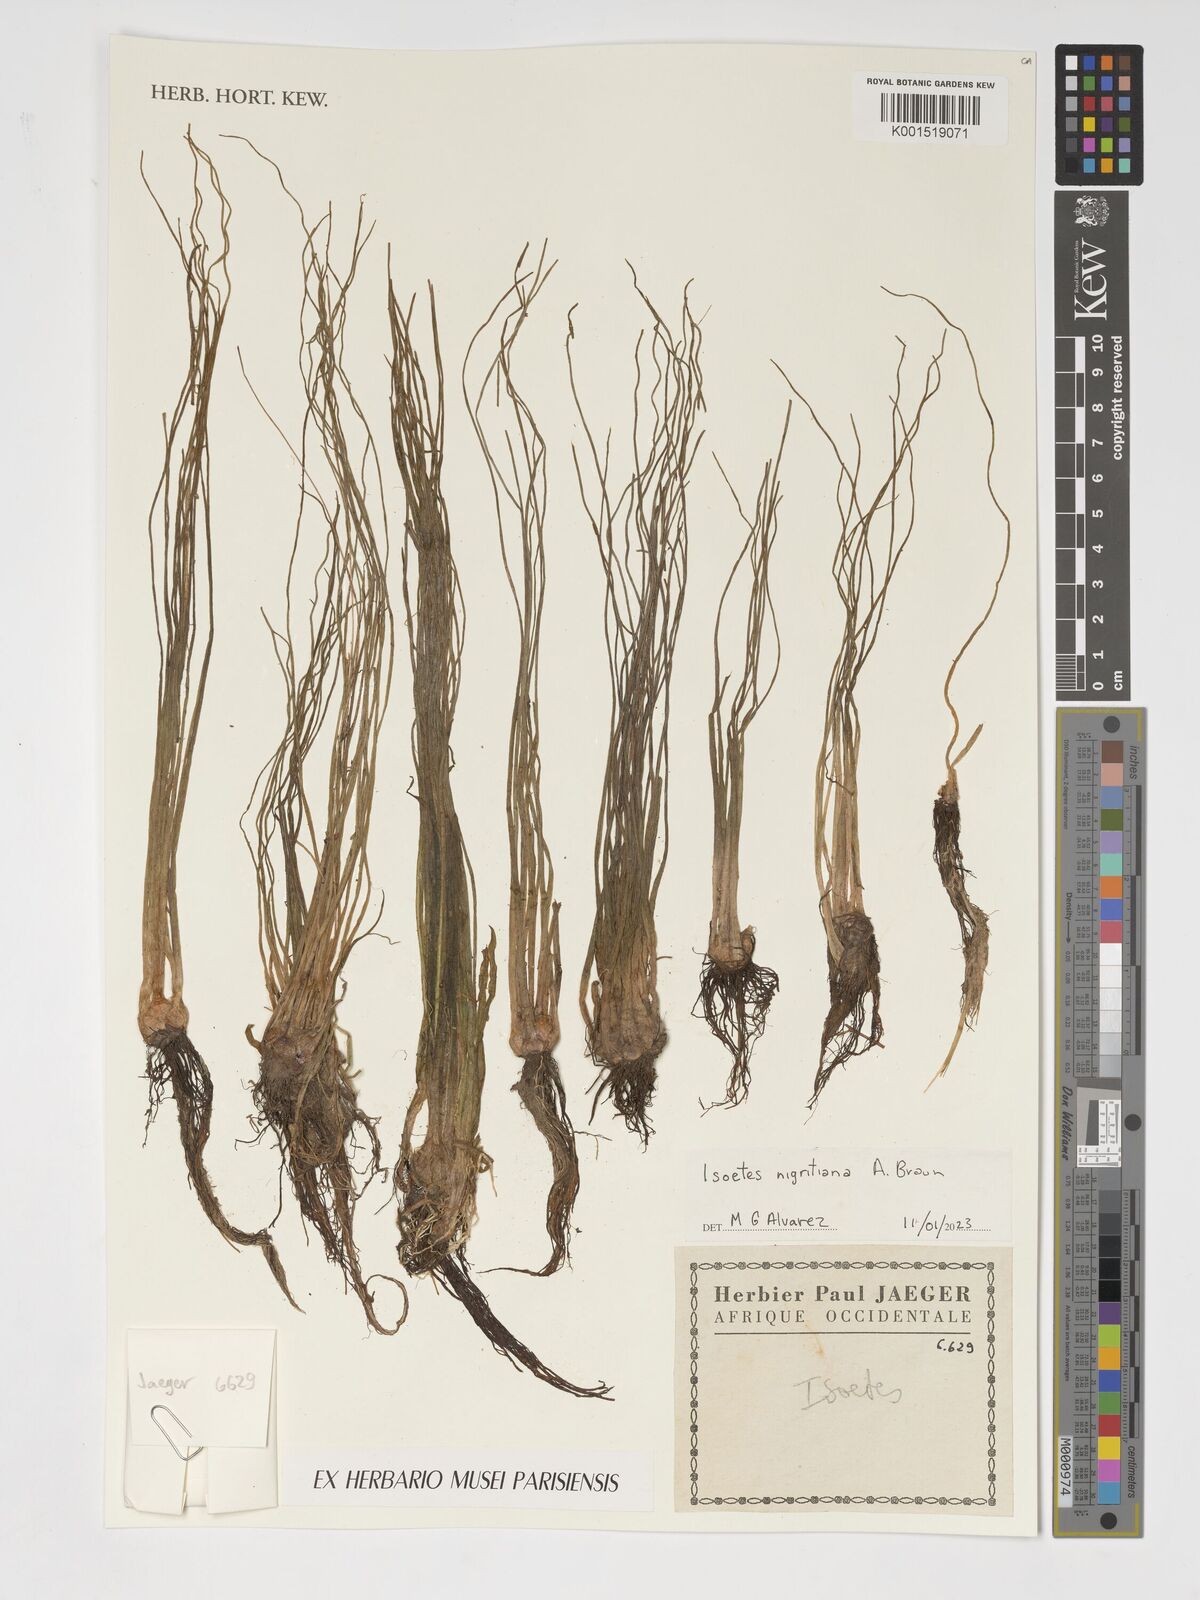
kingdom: Plantae
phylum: Tracheophyta
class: Lycopodiopsida
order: Isoetales
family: Isoetaceae
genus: Isoetes
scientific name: Isoetes nigritiana
